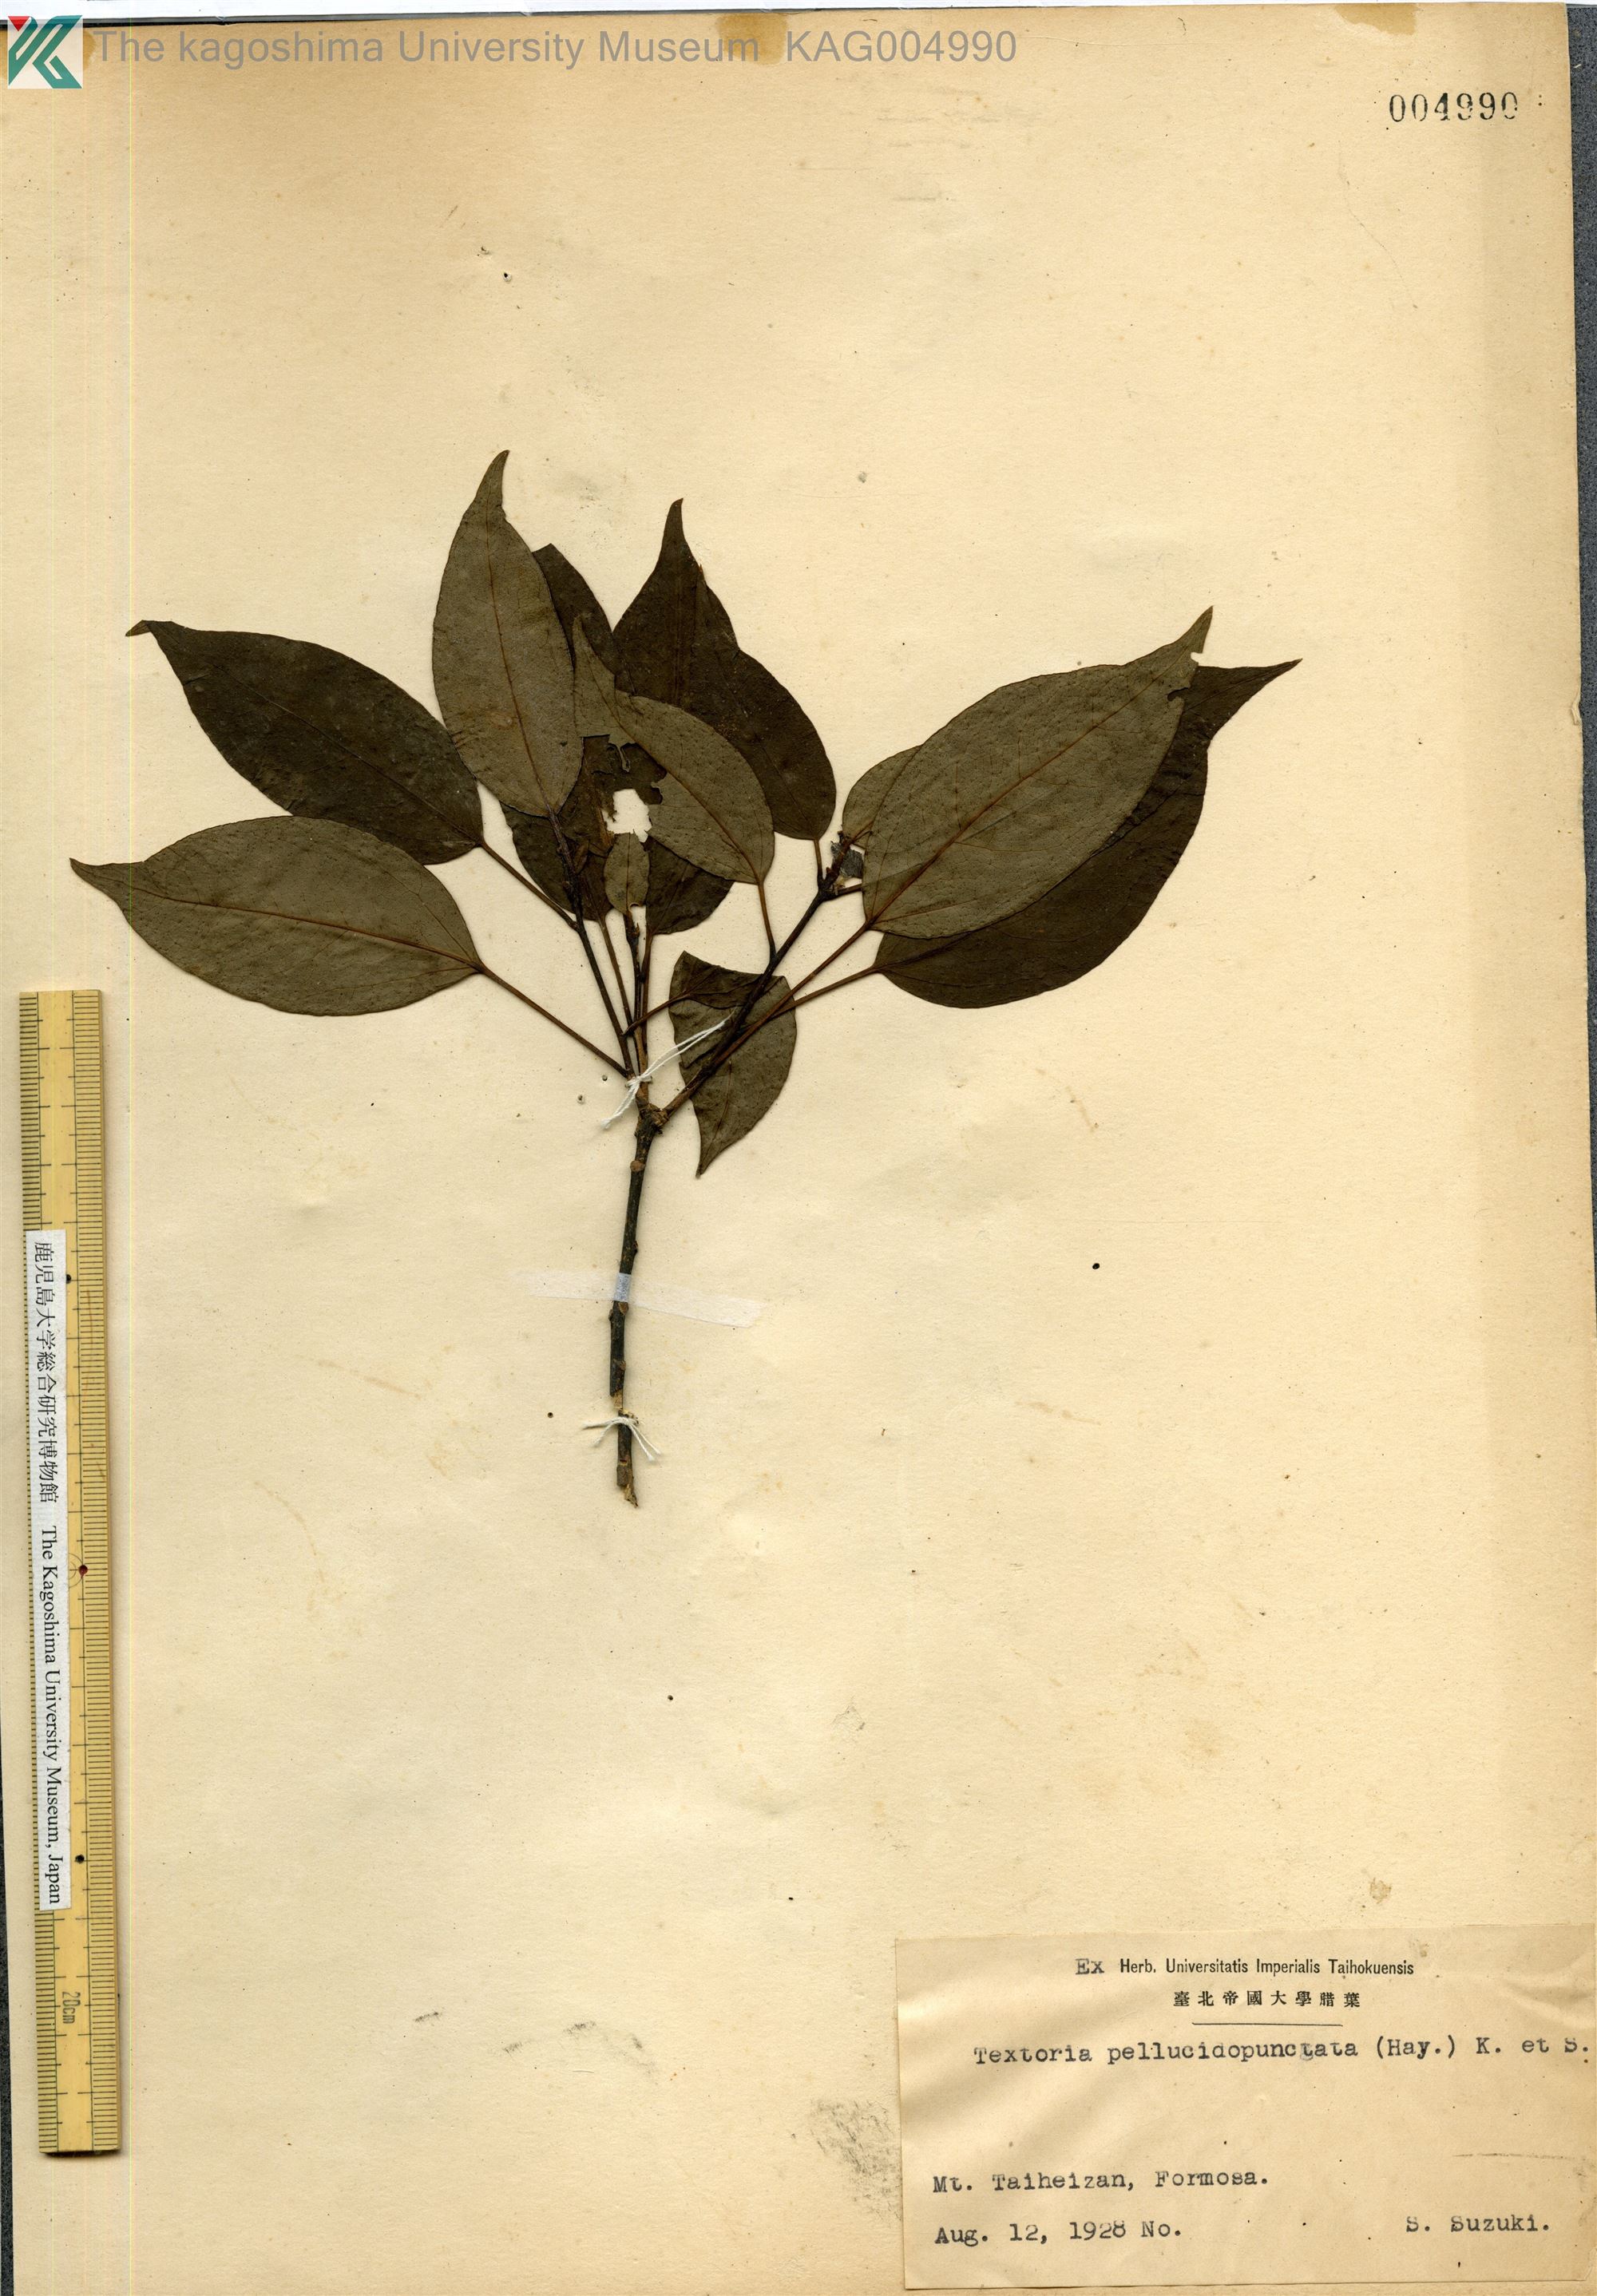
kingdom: Plantae
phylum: Tracheophyta
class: Magnoliopsida
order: Apiales
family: Araliaceae
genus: Dendropanax
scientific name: Dendropanax pellucidopunctatus
